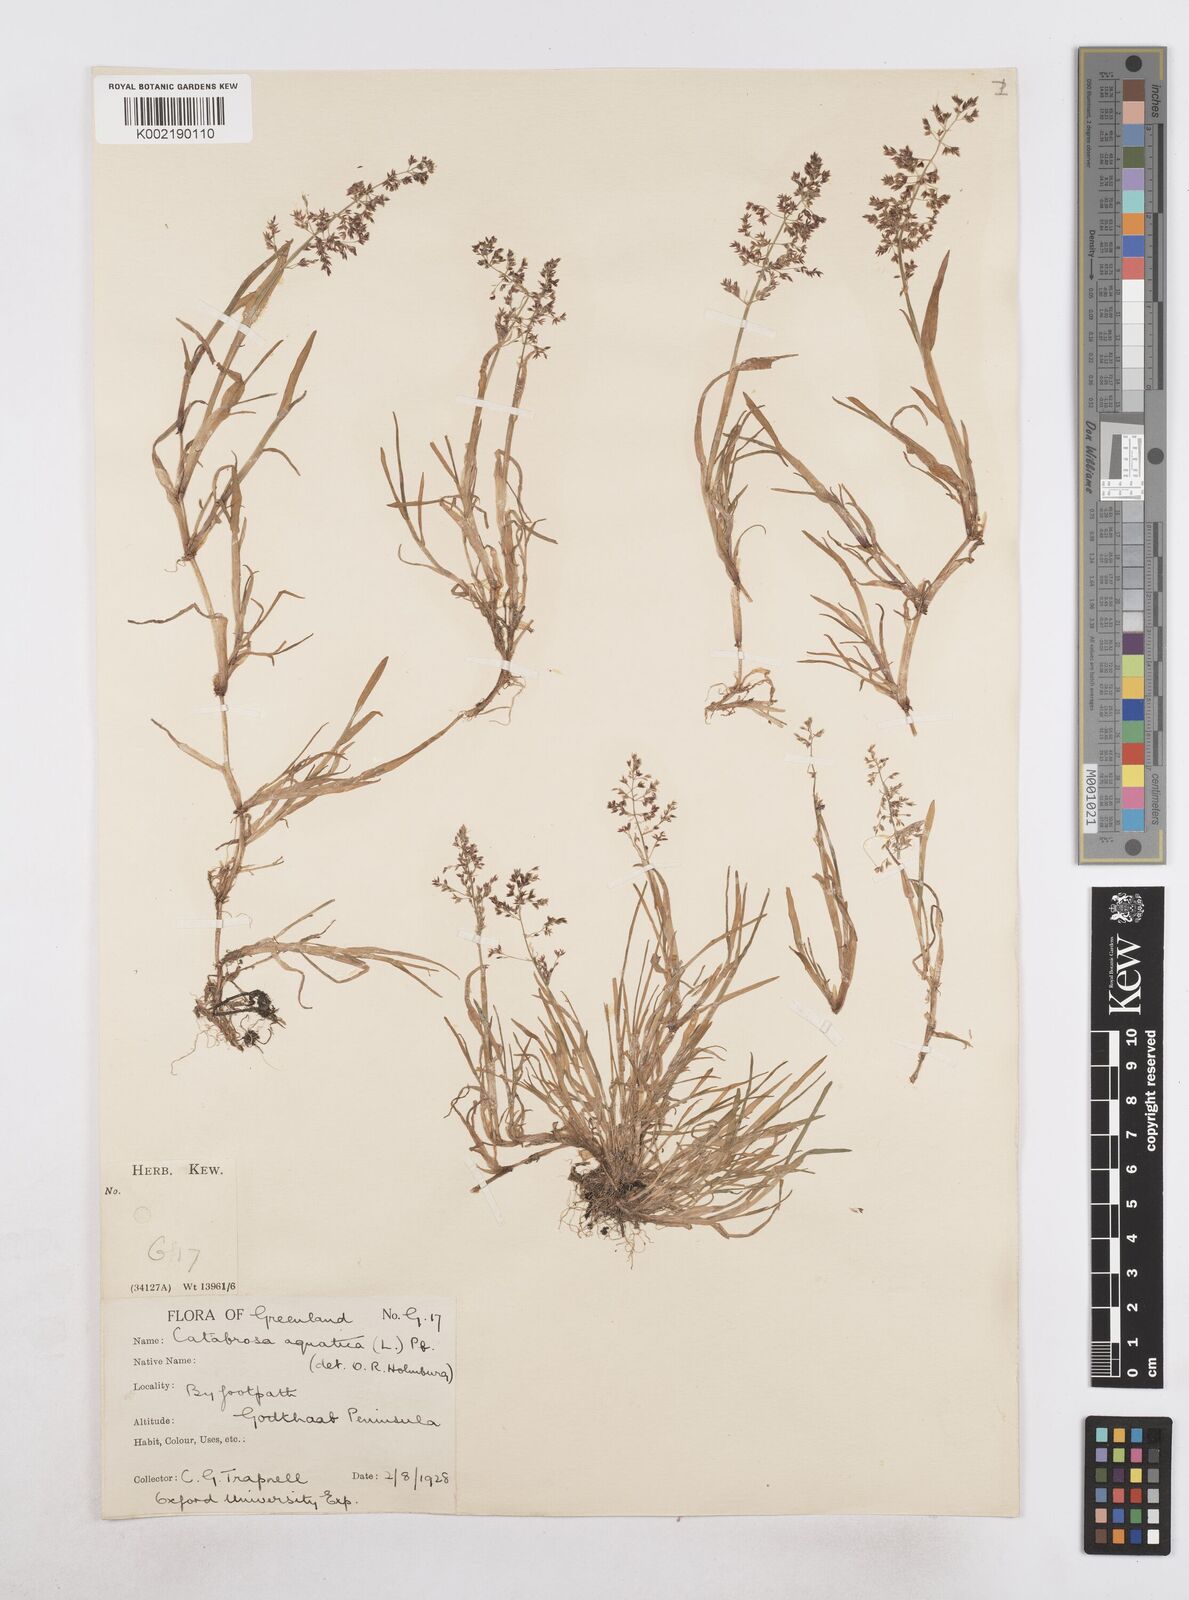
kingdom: Plantae
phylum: Tracheophyta
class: Liliopsida
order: Poales
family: Poaceae
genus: Catabrosa
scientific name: Catabrosa aquatica
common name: Whorl-grass
